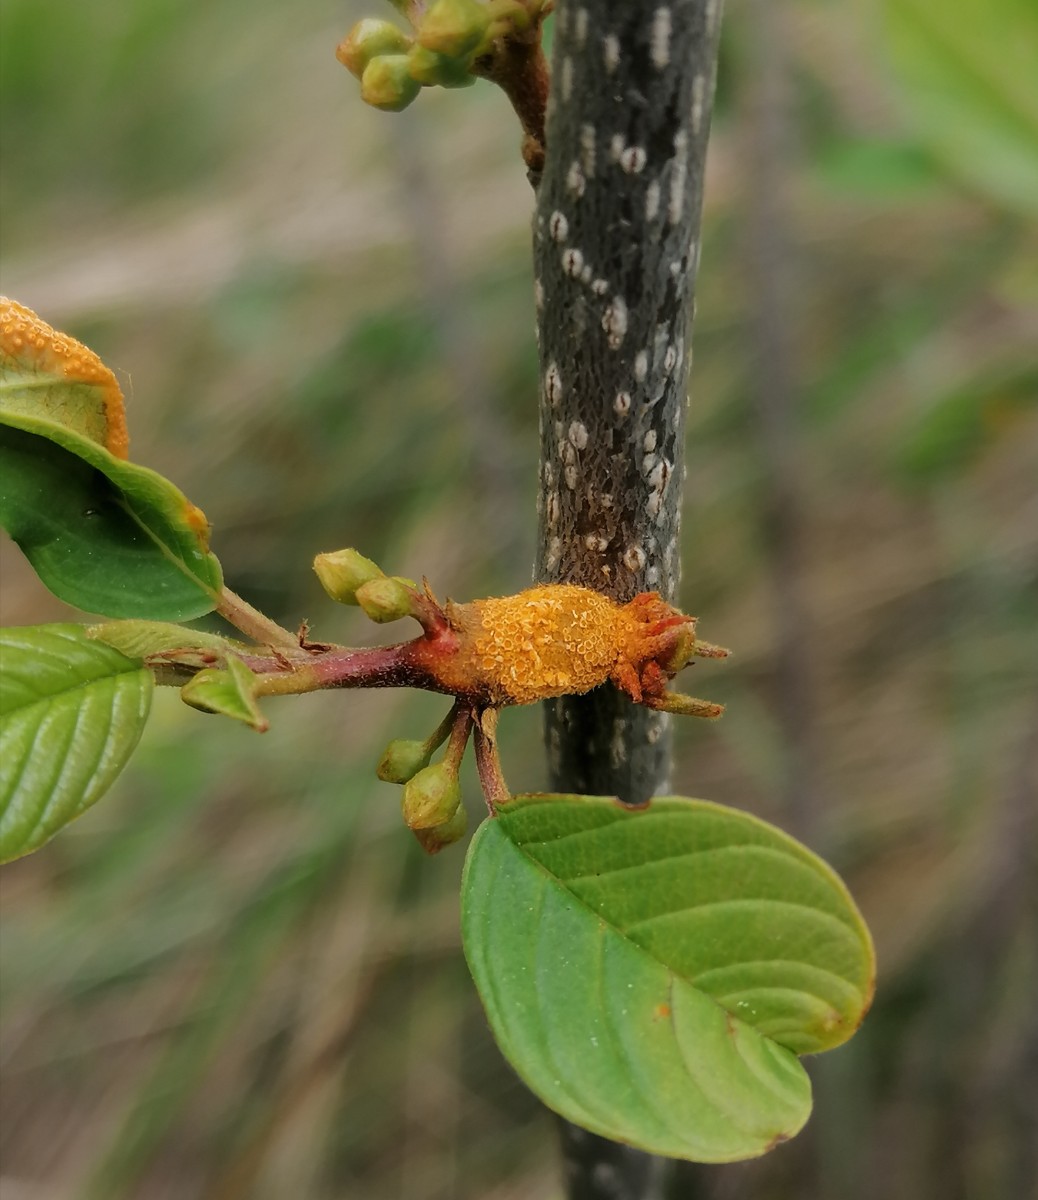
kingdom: Fungi
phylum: Basidiomycota
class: Pucciniomycetes
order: Pucciniales
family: Pucciniaceae
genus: Puccinia
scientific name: Puccinia coronata
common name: Crown rust
